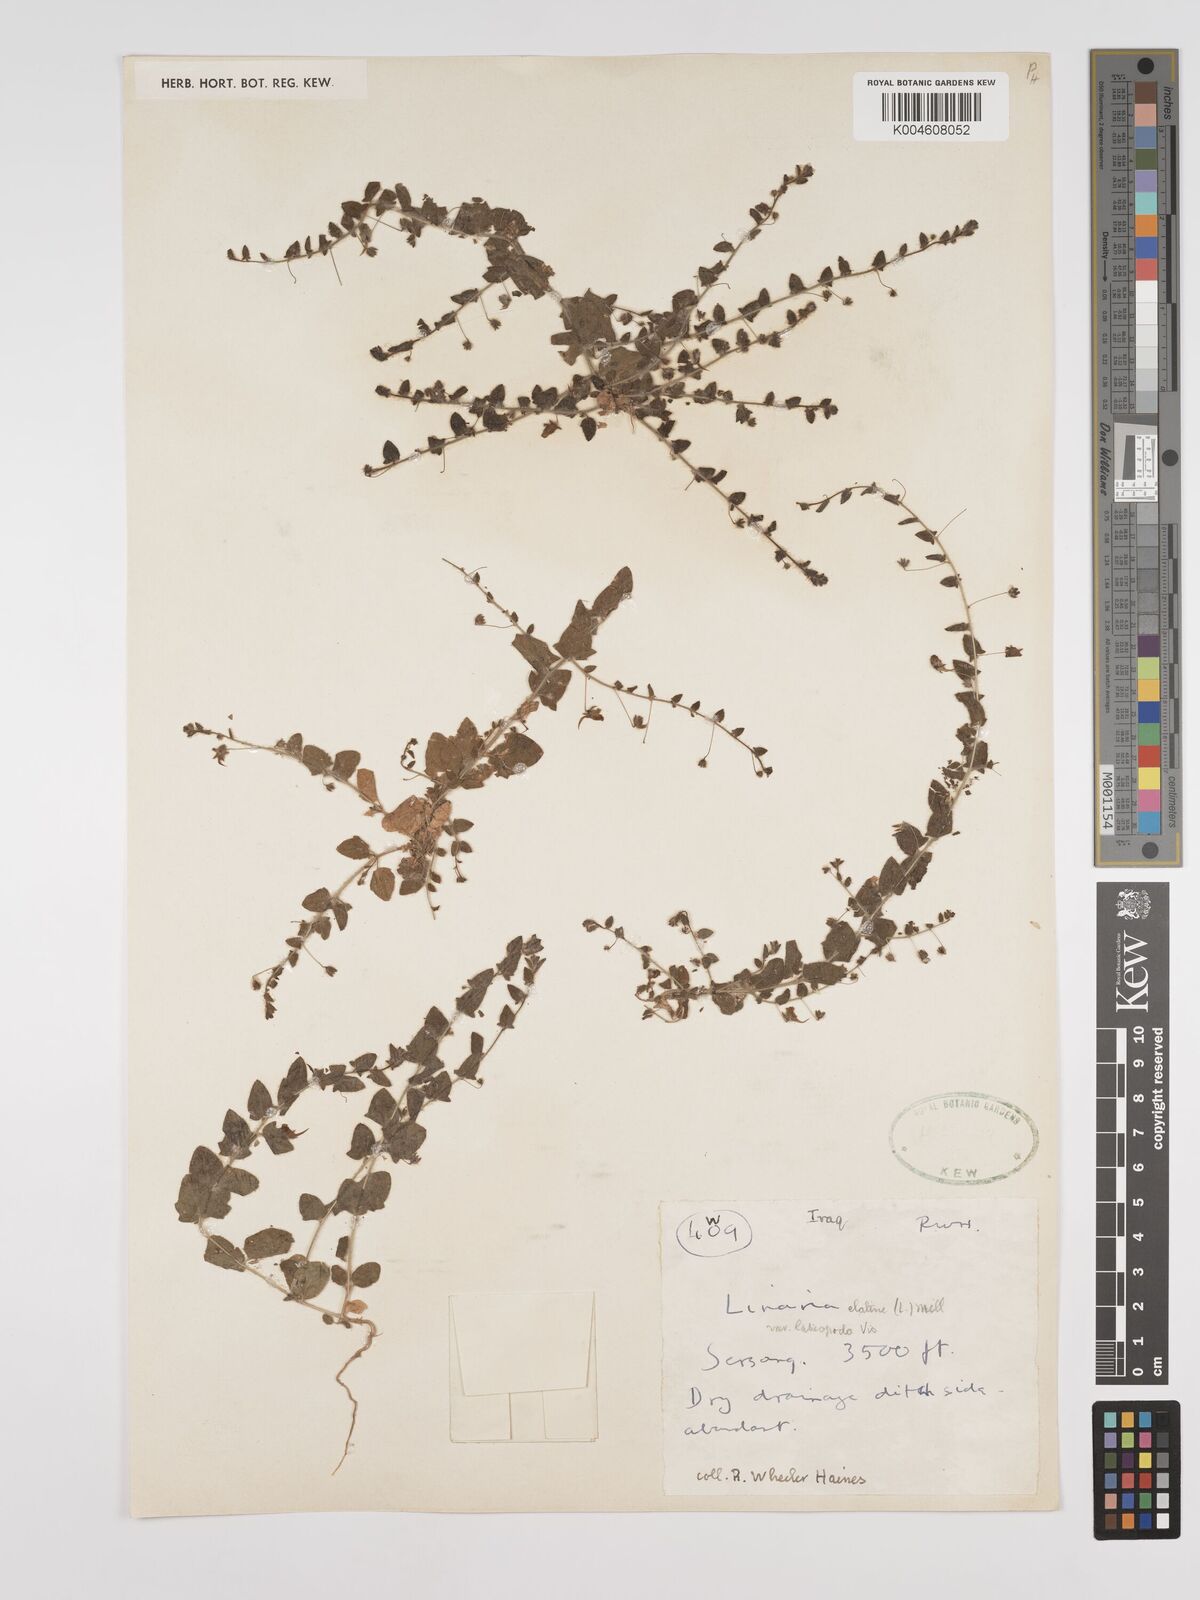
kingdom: Plantae
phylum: Tracheophyta
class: Magnoliopsida
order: Lamiales
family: Plantaginaceae
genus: Kickxia
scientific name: Kickxia elatine
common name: Sharp-leaved fluellen
